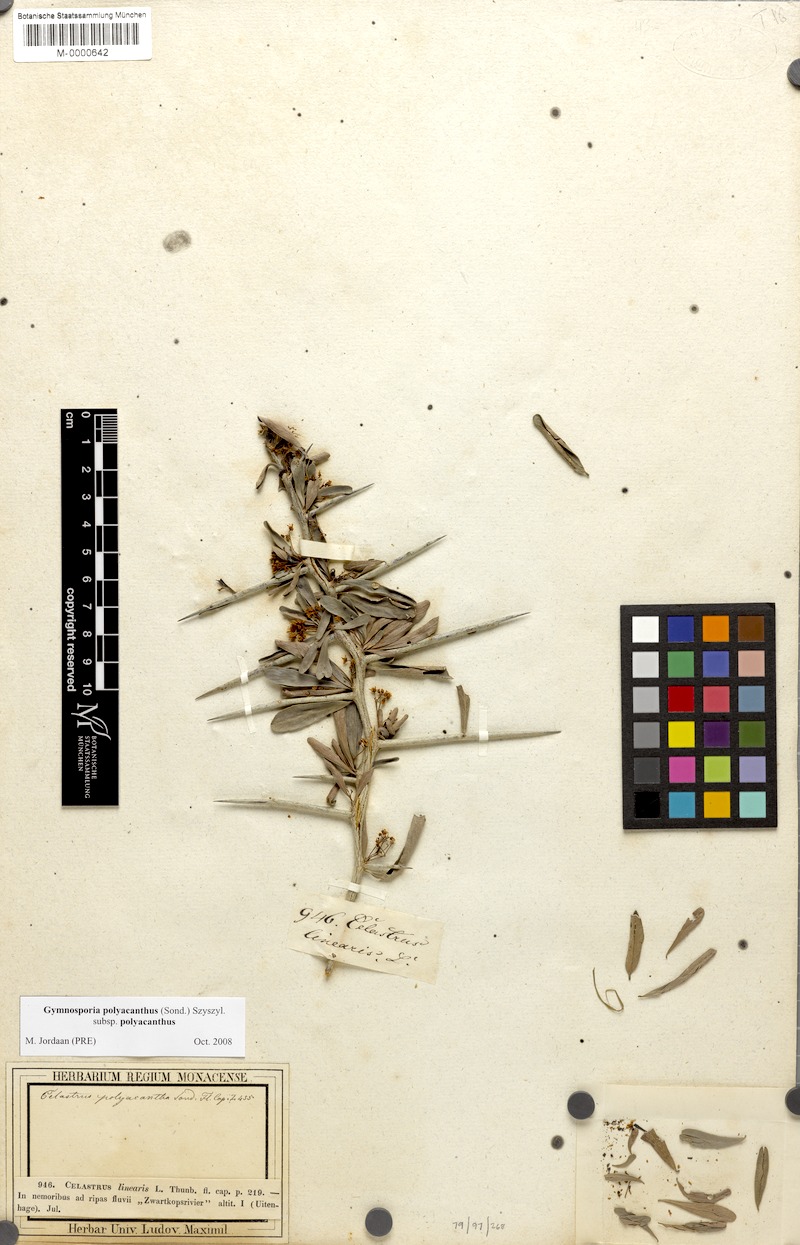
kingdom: Plantae
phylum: Tracheophyta
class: Magnoliopsida
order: Celastrales
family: Celastraceae
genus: Gymnosporia
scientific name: Gymnosporia polyacantha
